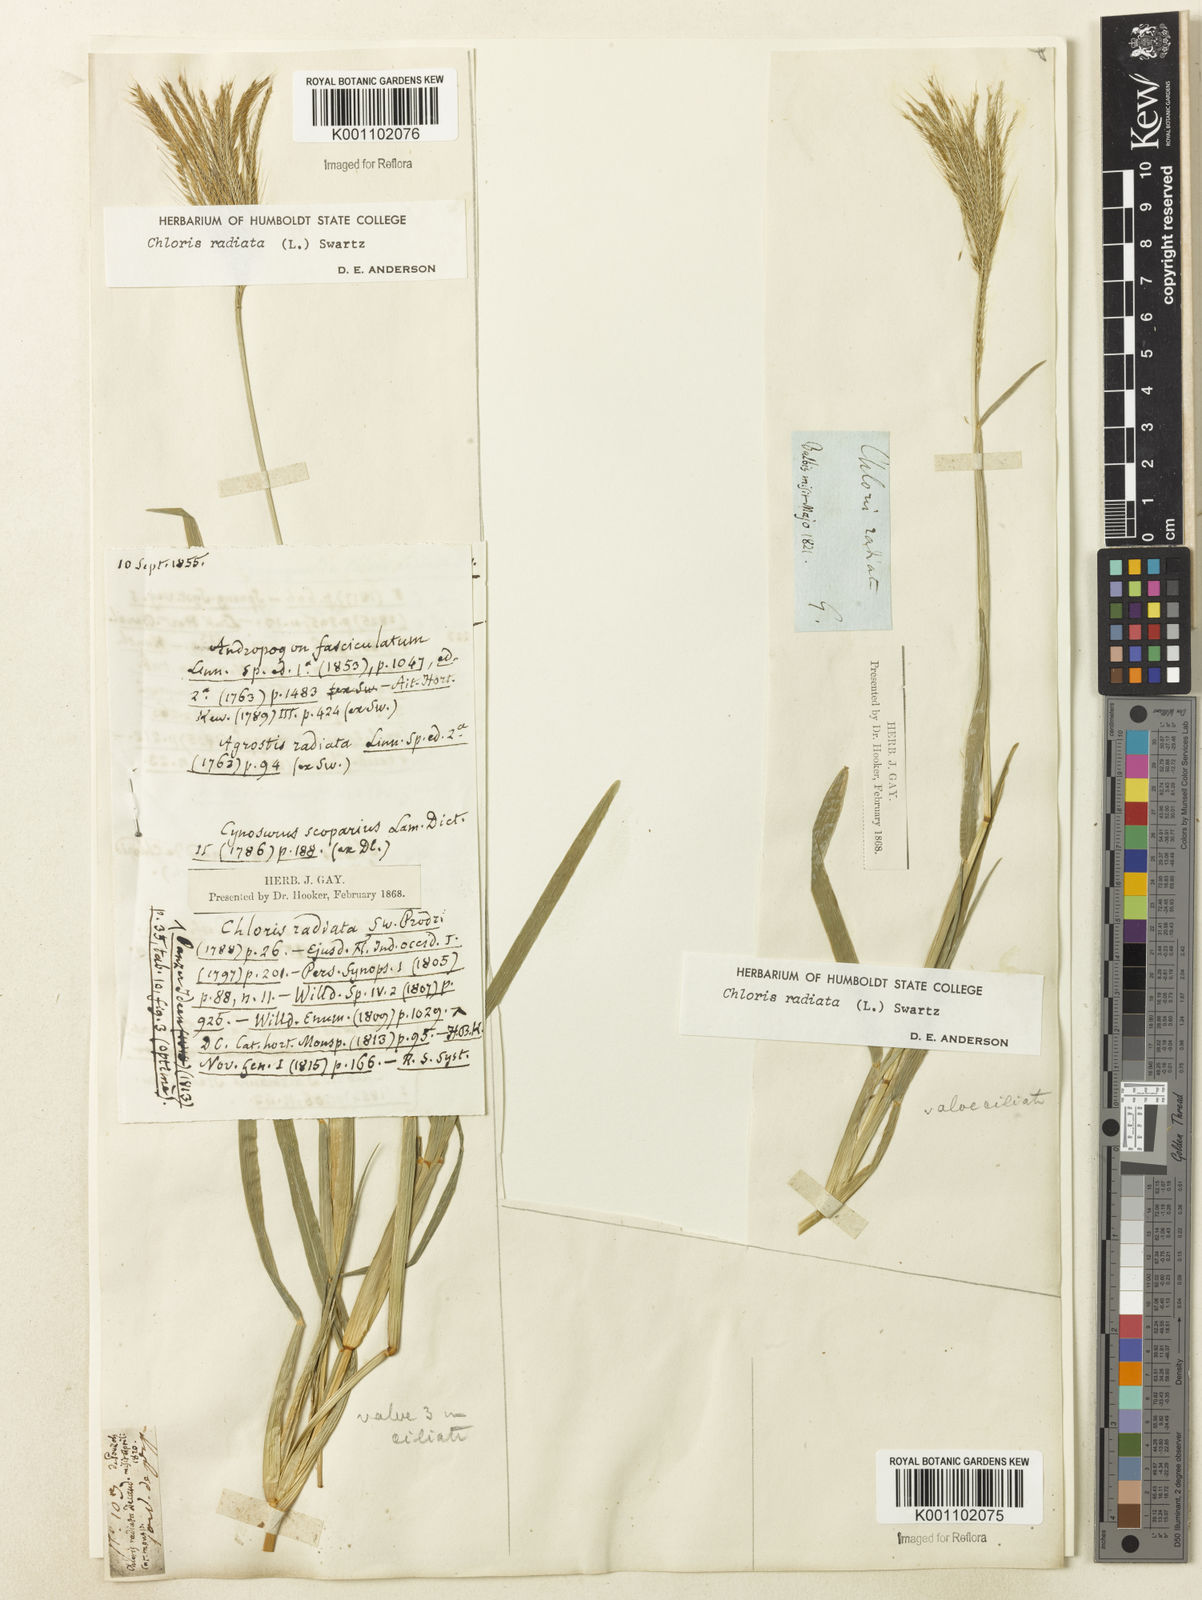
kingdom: Plantae
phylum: Tracheophyta
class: Liliopsida
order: Poales
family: Poaceae
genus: Chloris
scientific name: Chloris radiata
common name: Radiate fingergrass
